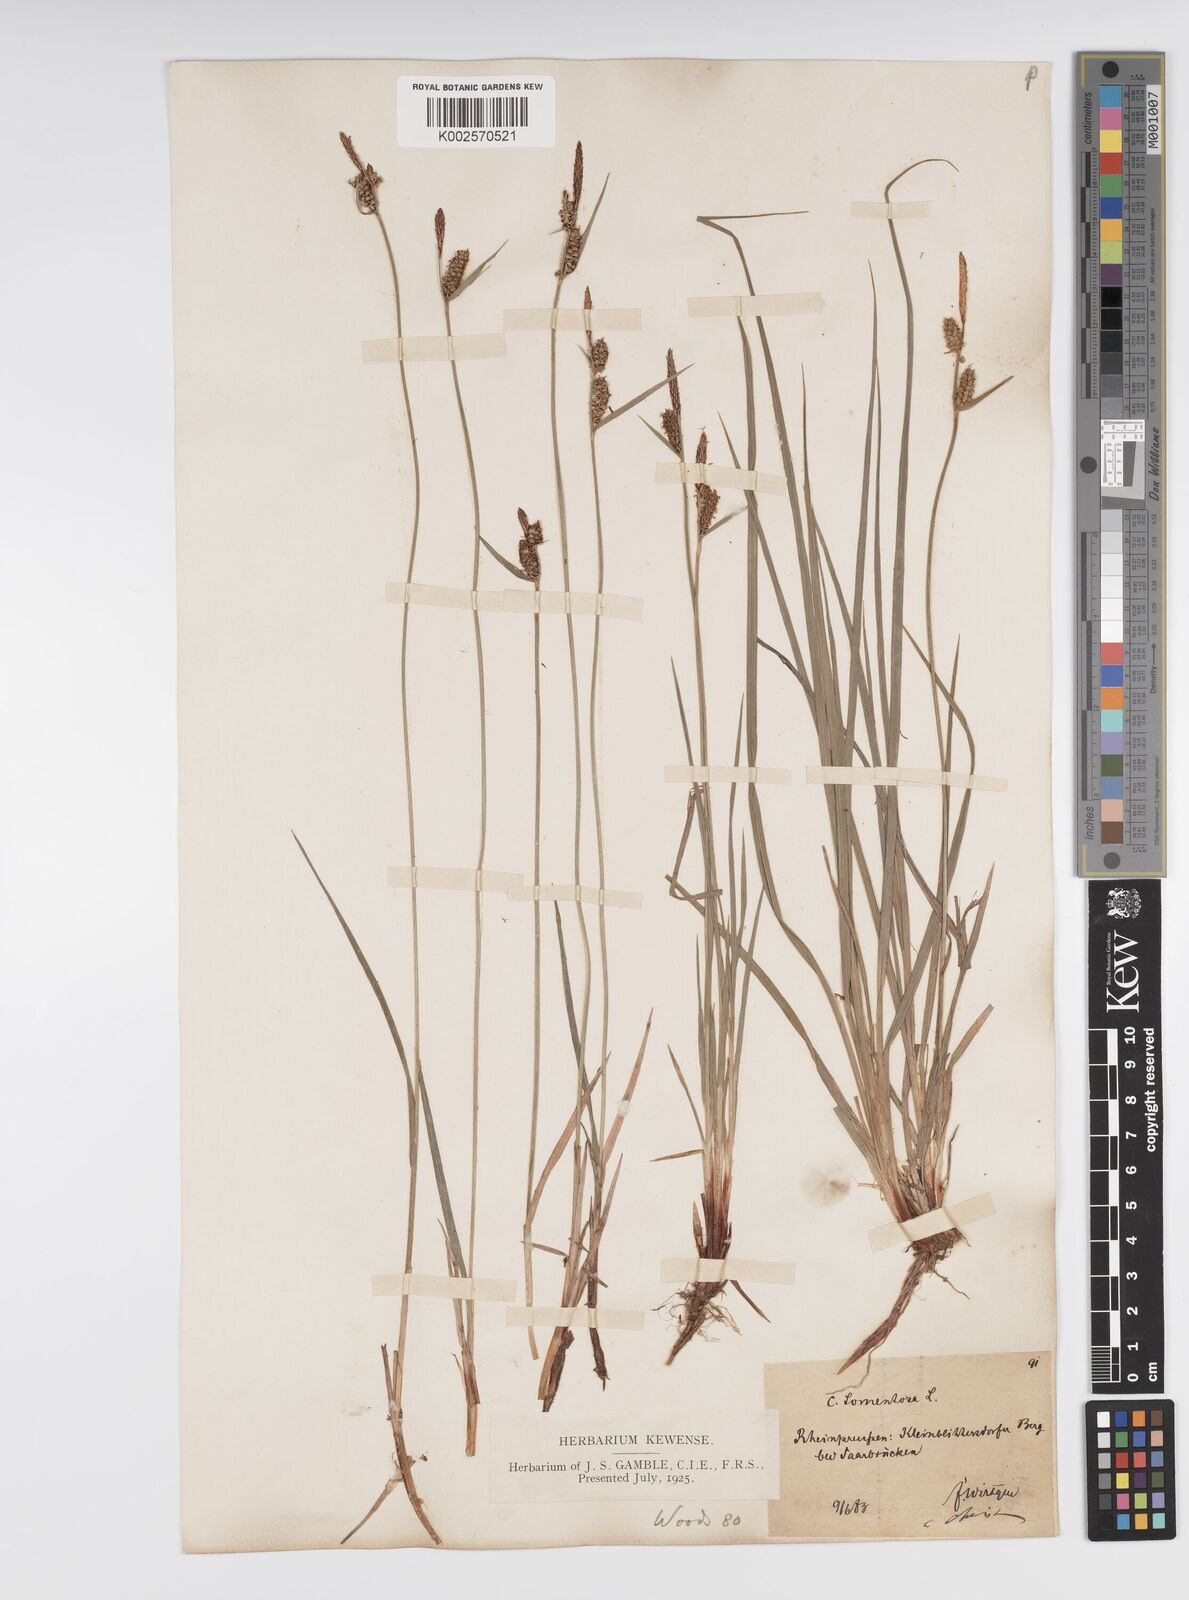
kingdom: Plantae
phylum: Tracheophyta
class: Liliopsida
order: Poales
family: Cyperaceae
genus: Carex
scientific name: Carex montana
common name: Soft-leaved sedge
